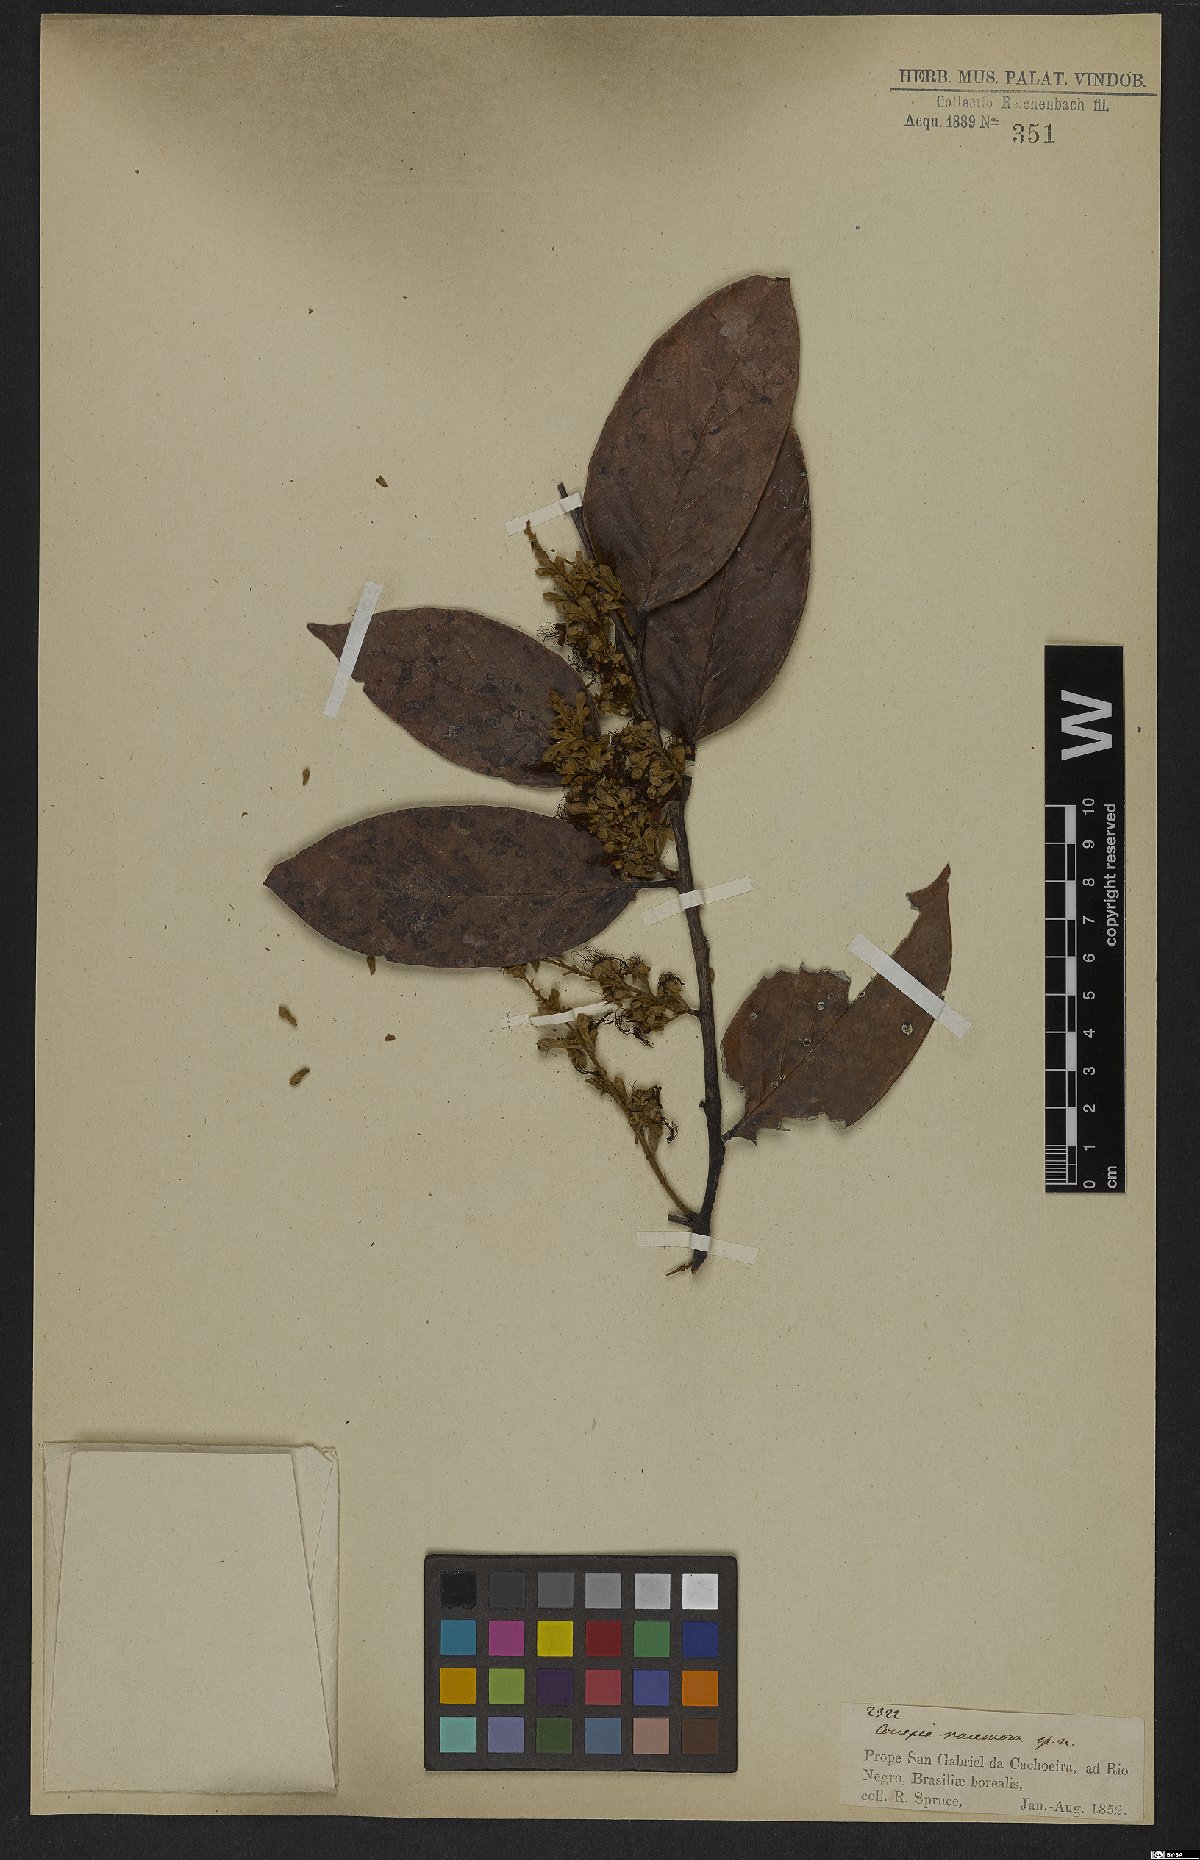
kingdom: Plantae
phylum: Tracheophyta
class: Magnoliopsida
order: Malpighiales
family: Chrysobalanaceae
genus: Gaulettia
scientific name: Gaulettia racemosa
